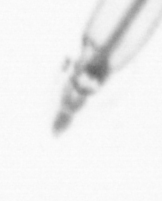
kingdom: Animalia
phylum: Arthropoda
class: Copepoda
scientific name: Copepoda
